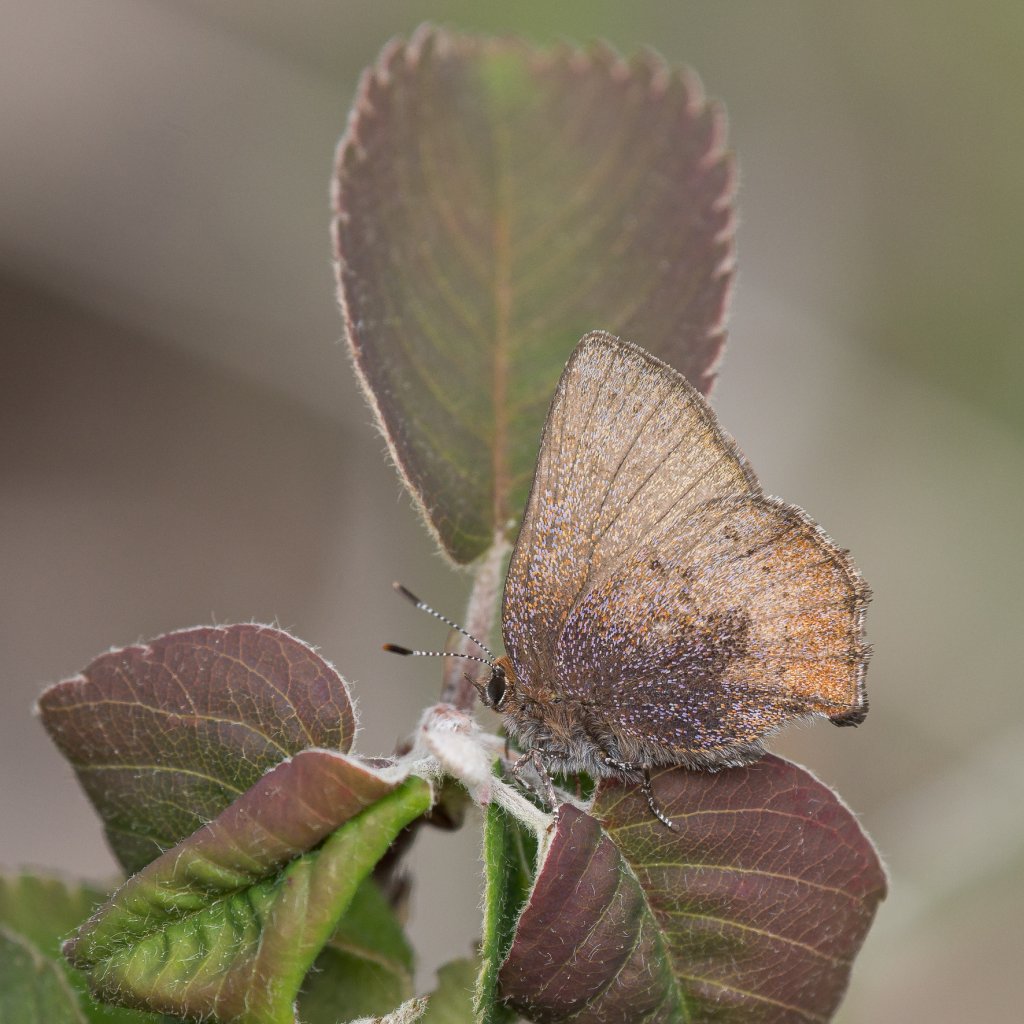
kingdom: Animalia
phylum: Arthropoda
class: Insecta
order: Lepidoptera
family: Lycaenidae
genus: Incisalia
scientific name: Incisalia irioides
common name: Brown Elfin
